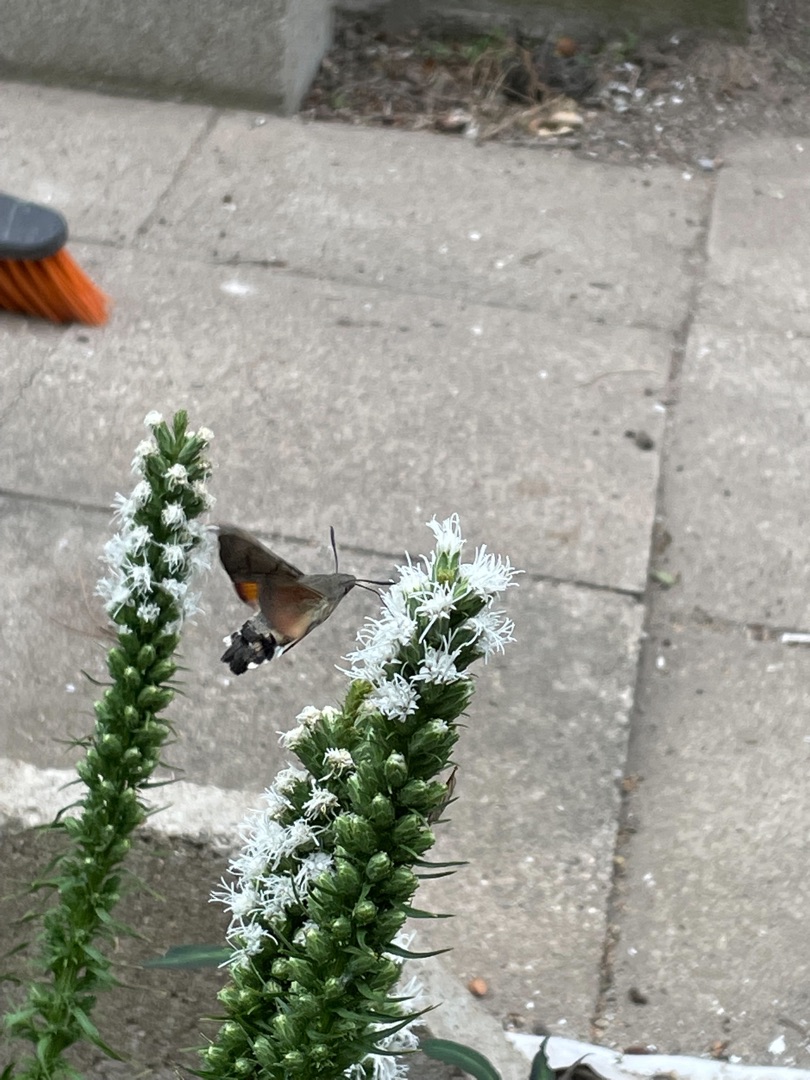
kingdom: Animalia
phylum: Arthropoda
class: Insecta
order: Lepidoptera
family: Sphingidae
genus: Macroglossum
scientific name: Macroglossum stellatarum
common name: Duehale
